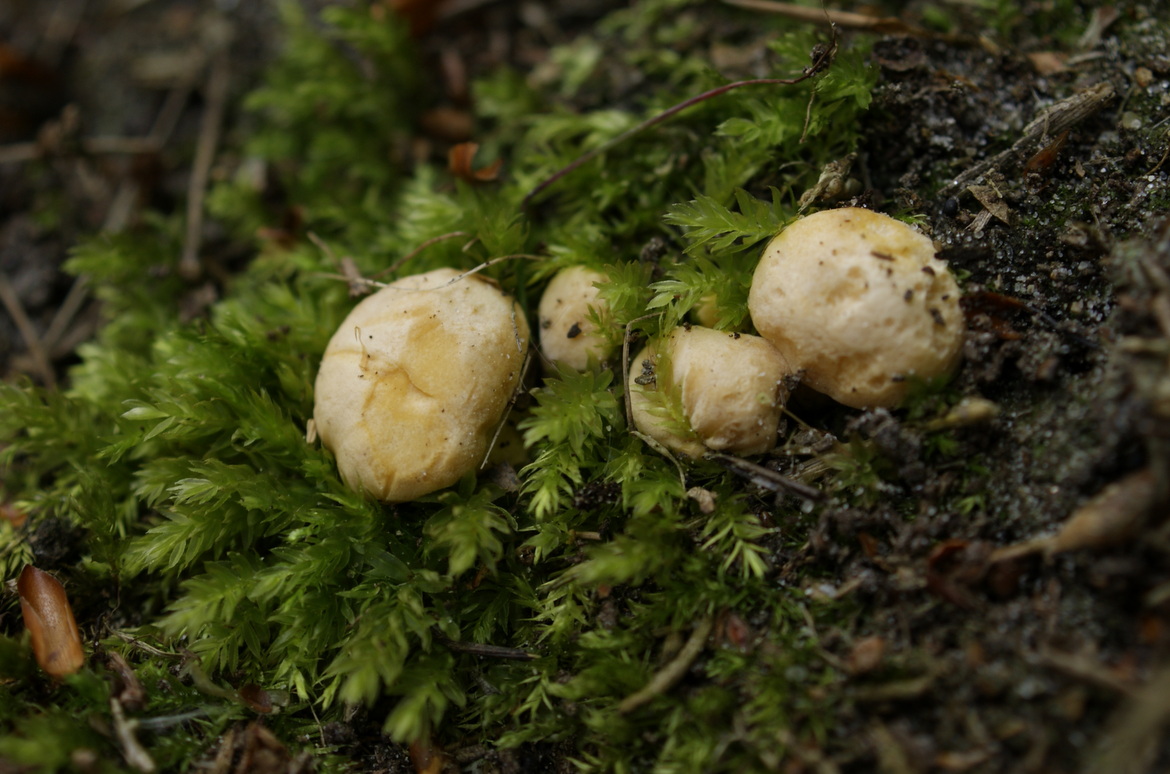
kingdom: Fungi
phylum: Basidiomycota
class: Agaricomycetes
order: Cantharellales
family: Hydnaceae
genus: Cantharellus
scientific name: Cantharellus pallens
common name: bleg kantarel
